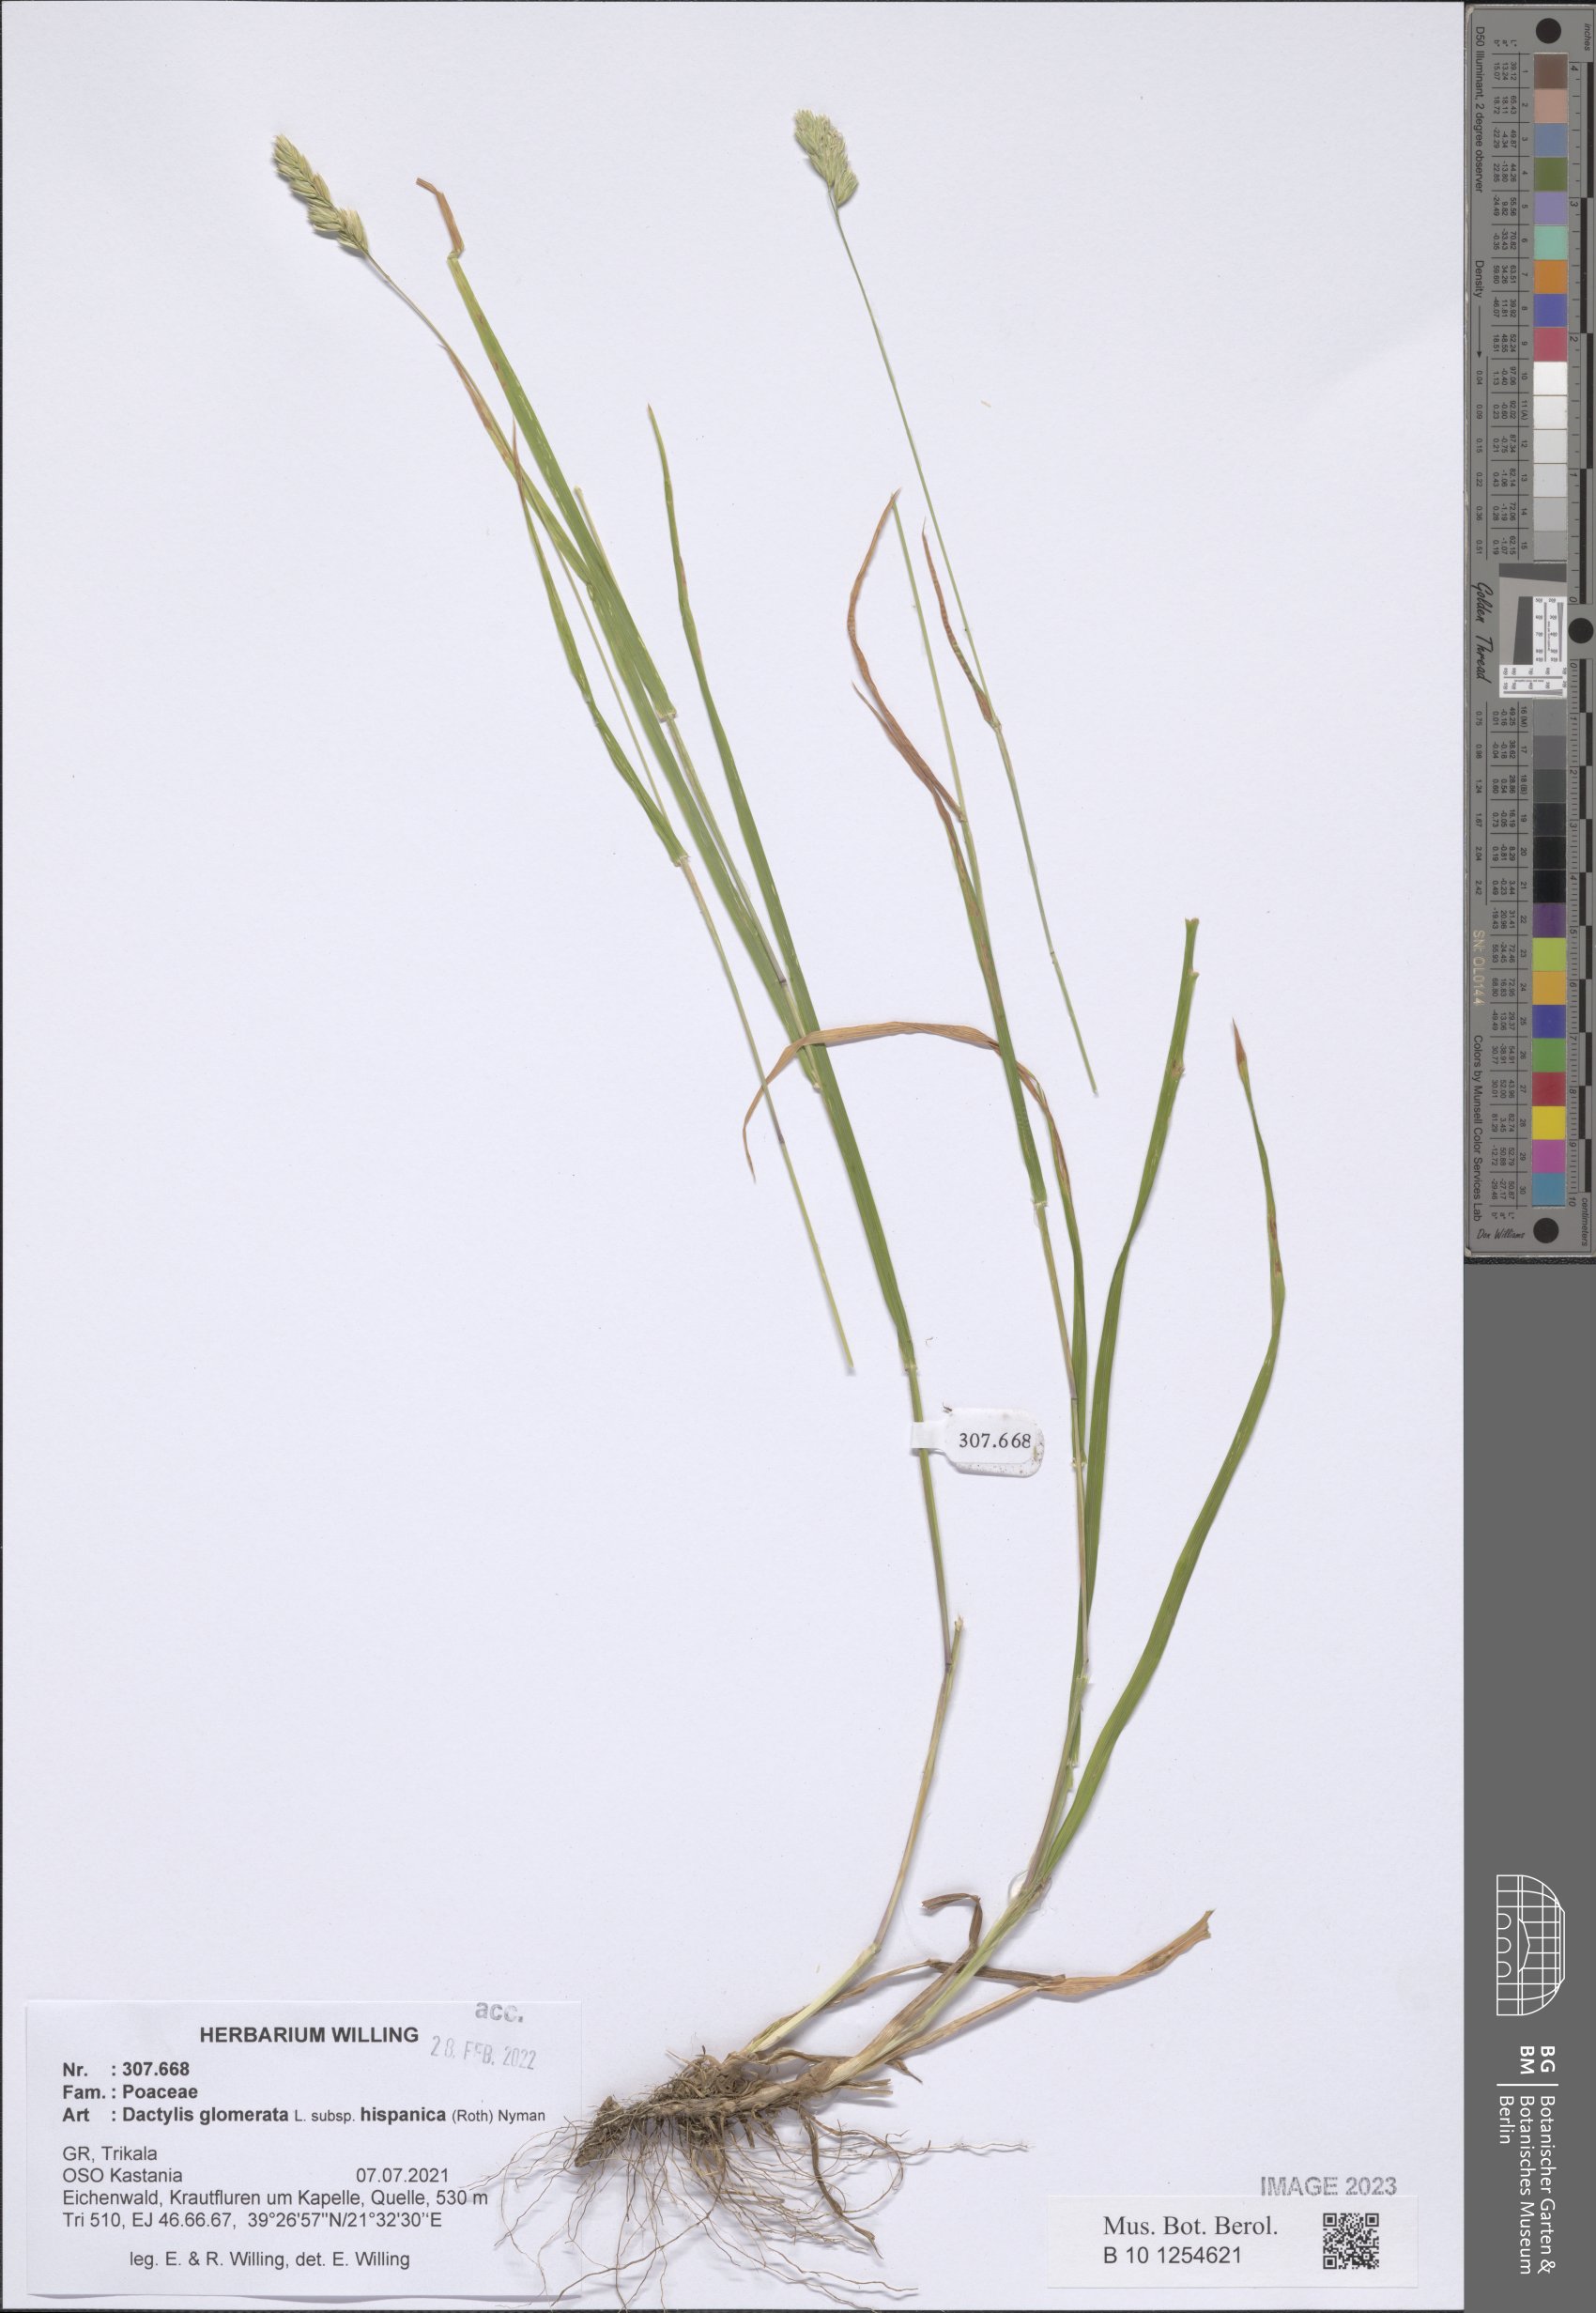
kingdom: Plantae
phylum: Tracheophyta
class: Liliopsida
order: Poales
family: Poaceae
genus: Dactylis
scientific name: Dactylis glomerata
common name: Orchardgrass
